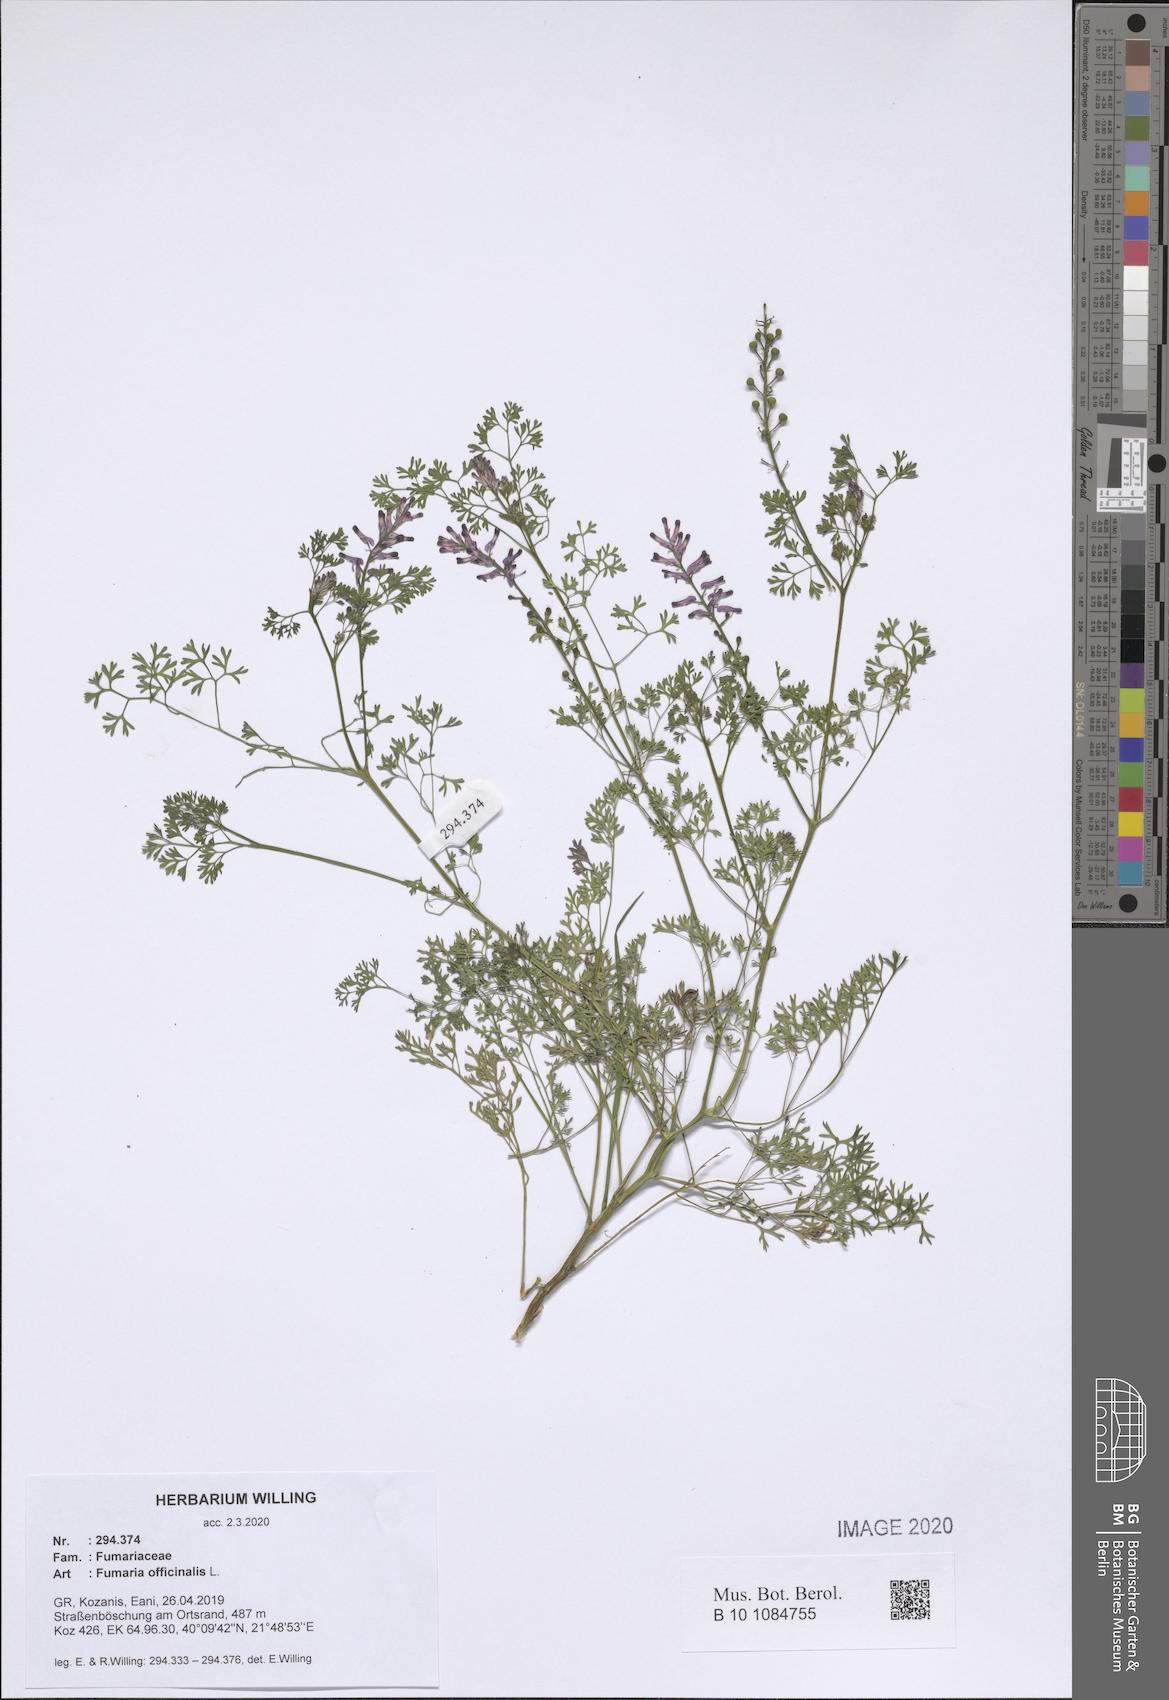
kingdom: Plantae
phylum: Tracheophyta
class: Magnoliopsida
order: Ranunculales
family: Papaveraceae
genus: Fumaria
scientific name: Fumaria officinalis
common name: Common fumitory
